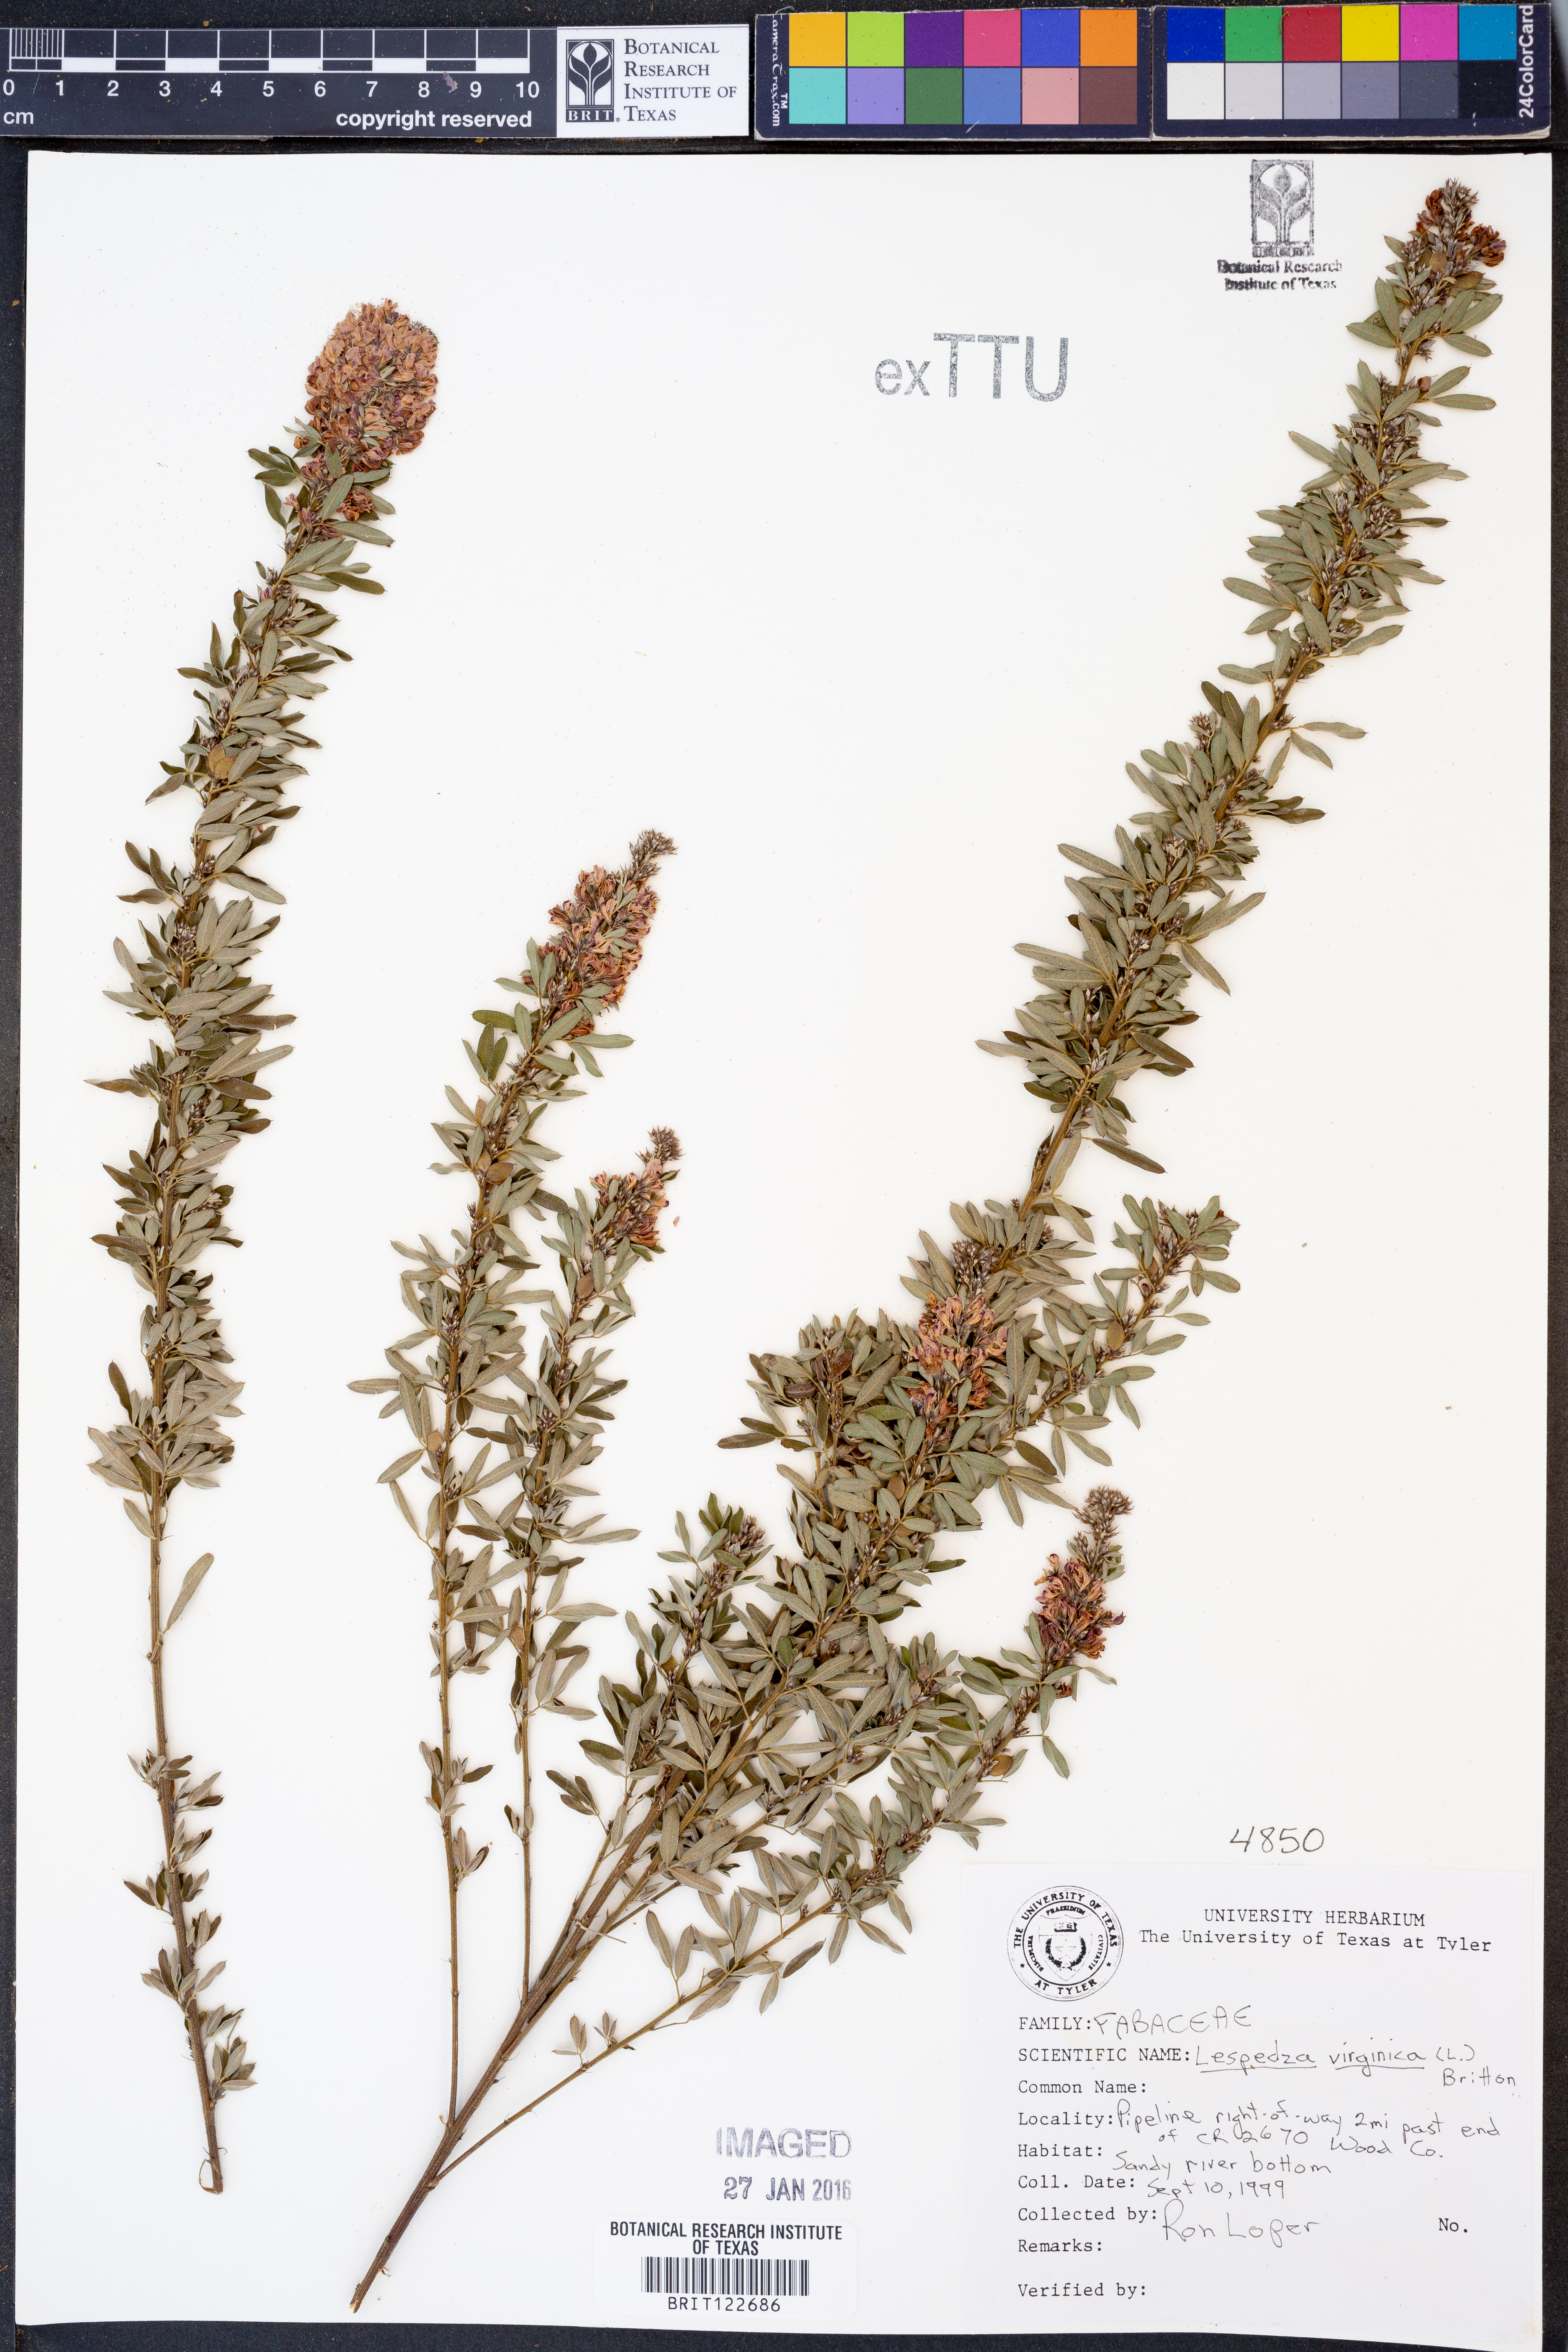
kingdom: Plantae
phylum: Tracheophyta
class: Magnoliopsida
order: Fabales
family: Fabaceae
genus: Lespedeza
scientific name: Lespedeza virginica
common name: Slender bush-clover
